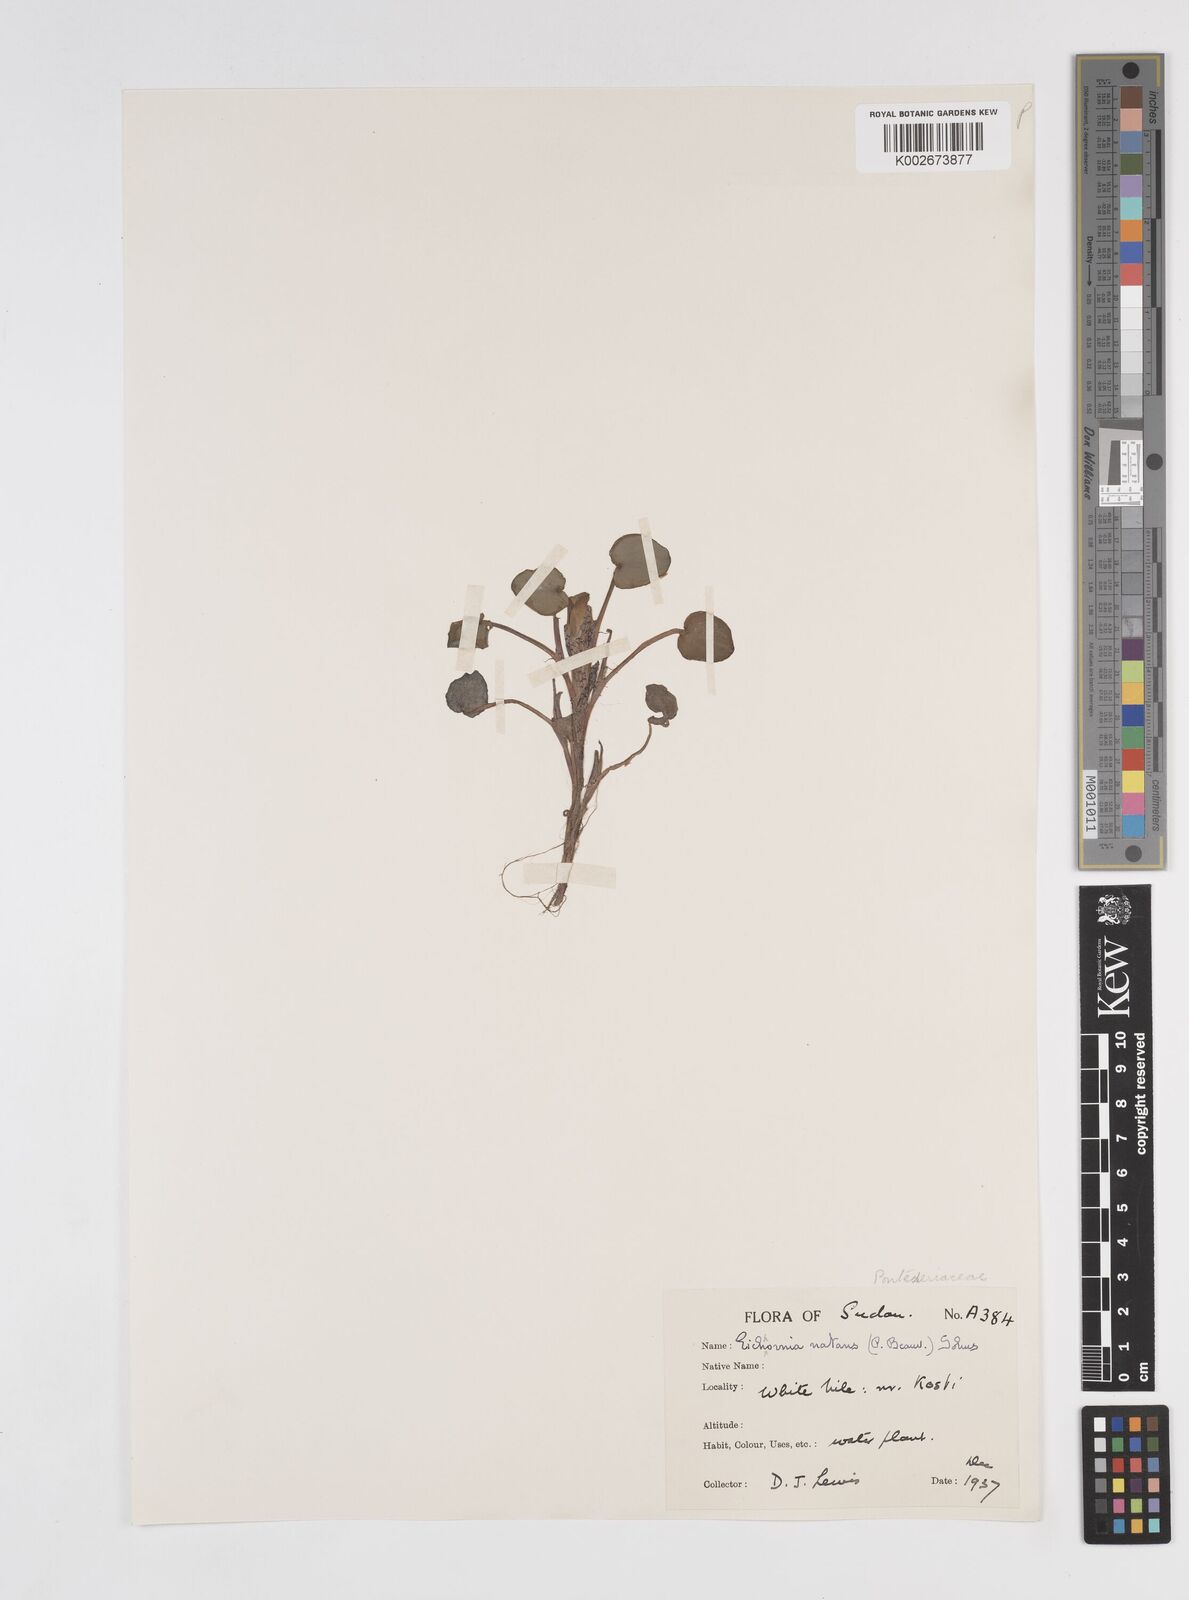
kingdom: Plantae
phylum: Tracheophyta
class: Liliopsida
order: Commelinales
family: Pontederiaceae
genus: Pontederia
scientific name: Pontederia diversifolia
